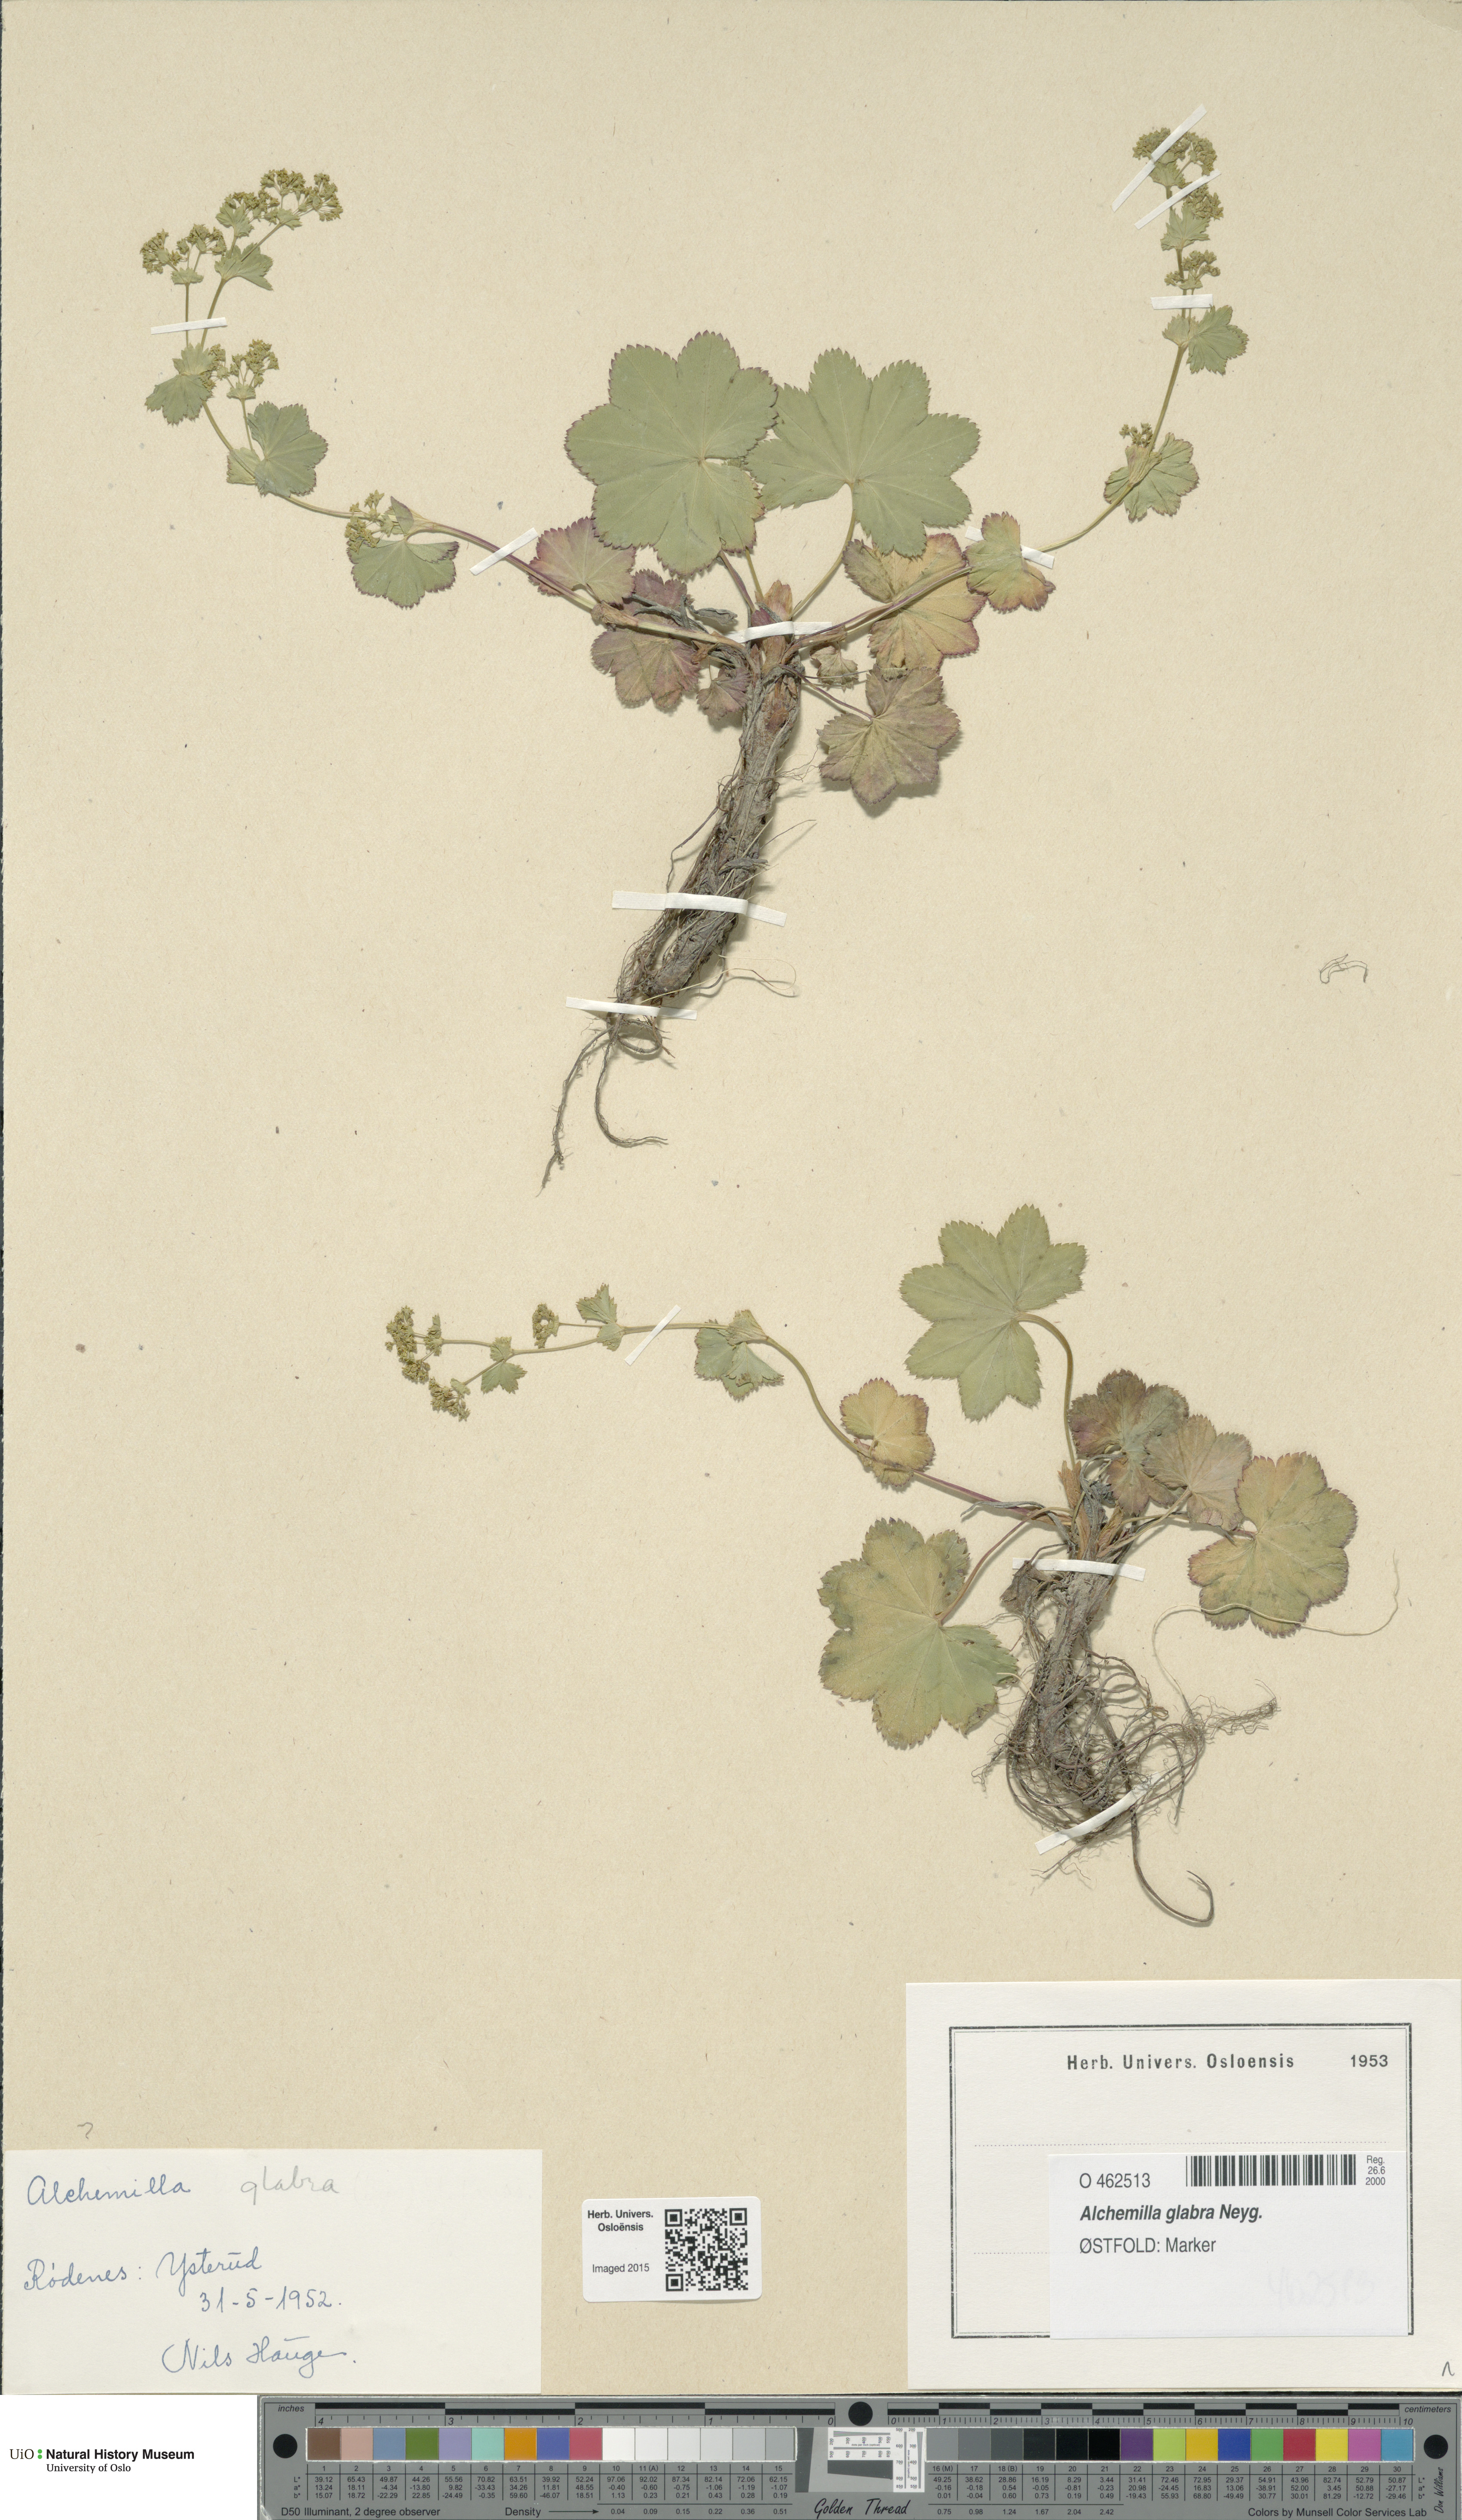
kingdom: Plantae
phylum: Tracheophyta
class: Magnoliopsida
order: Rosales
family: Rosaceae
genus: Alchemilla
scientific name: Alchemilla glabra
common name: Smooth lady's-mantle
